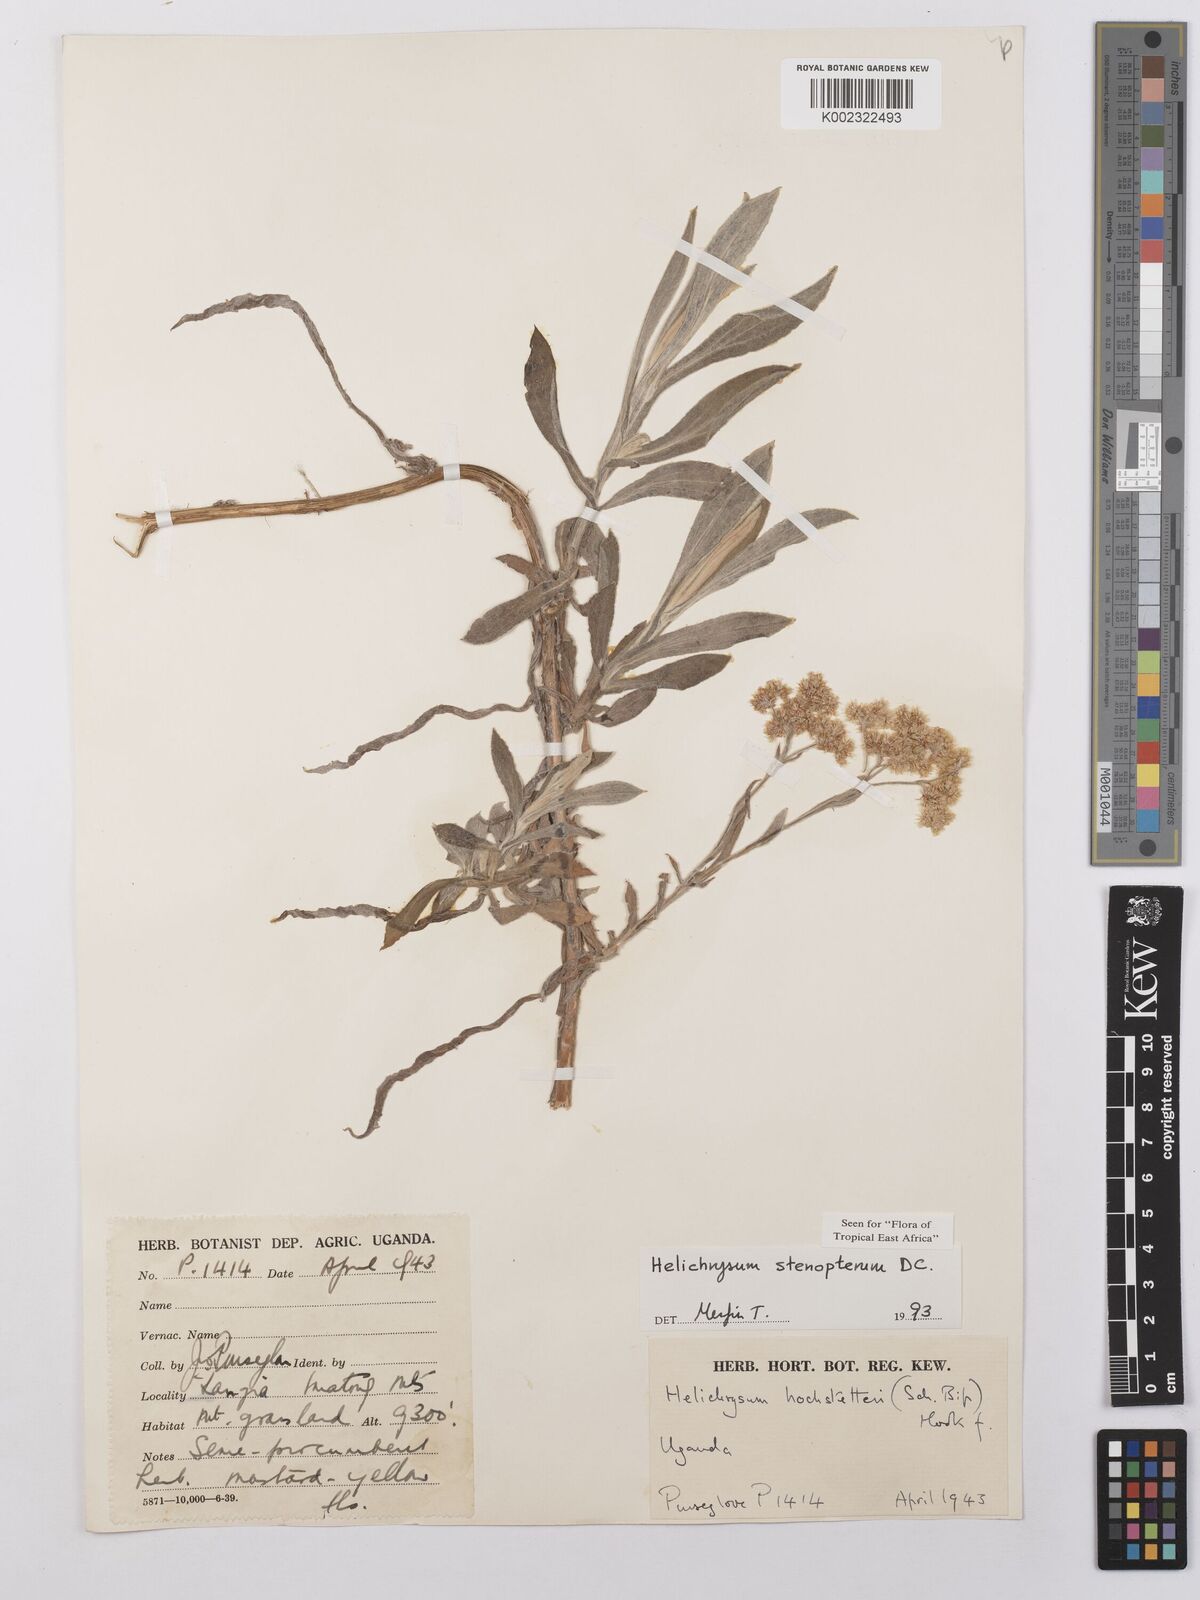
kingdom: Plantae
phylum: Tracheophyta
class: Magnoliopsida
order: Asterales
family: Asteraceae
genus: Helichrysum
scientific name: Helichrysum stenopterum
